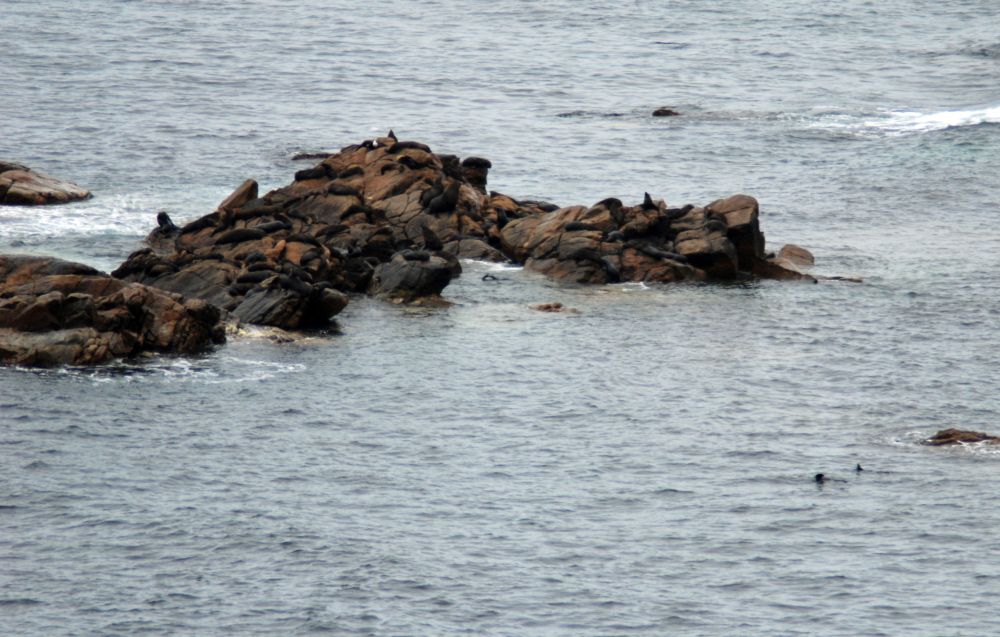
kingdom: Animalia
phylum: Chordata
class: Mammalia
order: Carnivora
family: Otariidae
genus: Neophoca
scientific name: Neophoca cinerea
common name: Australian sea lion
